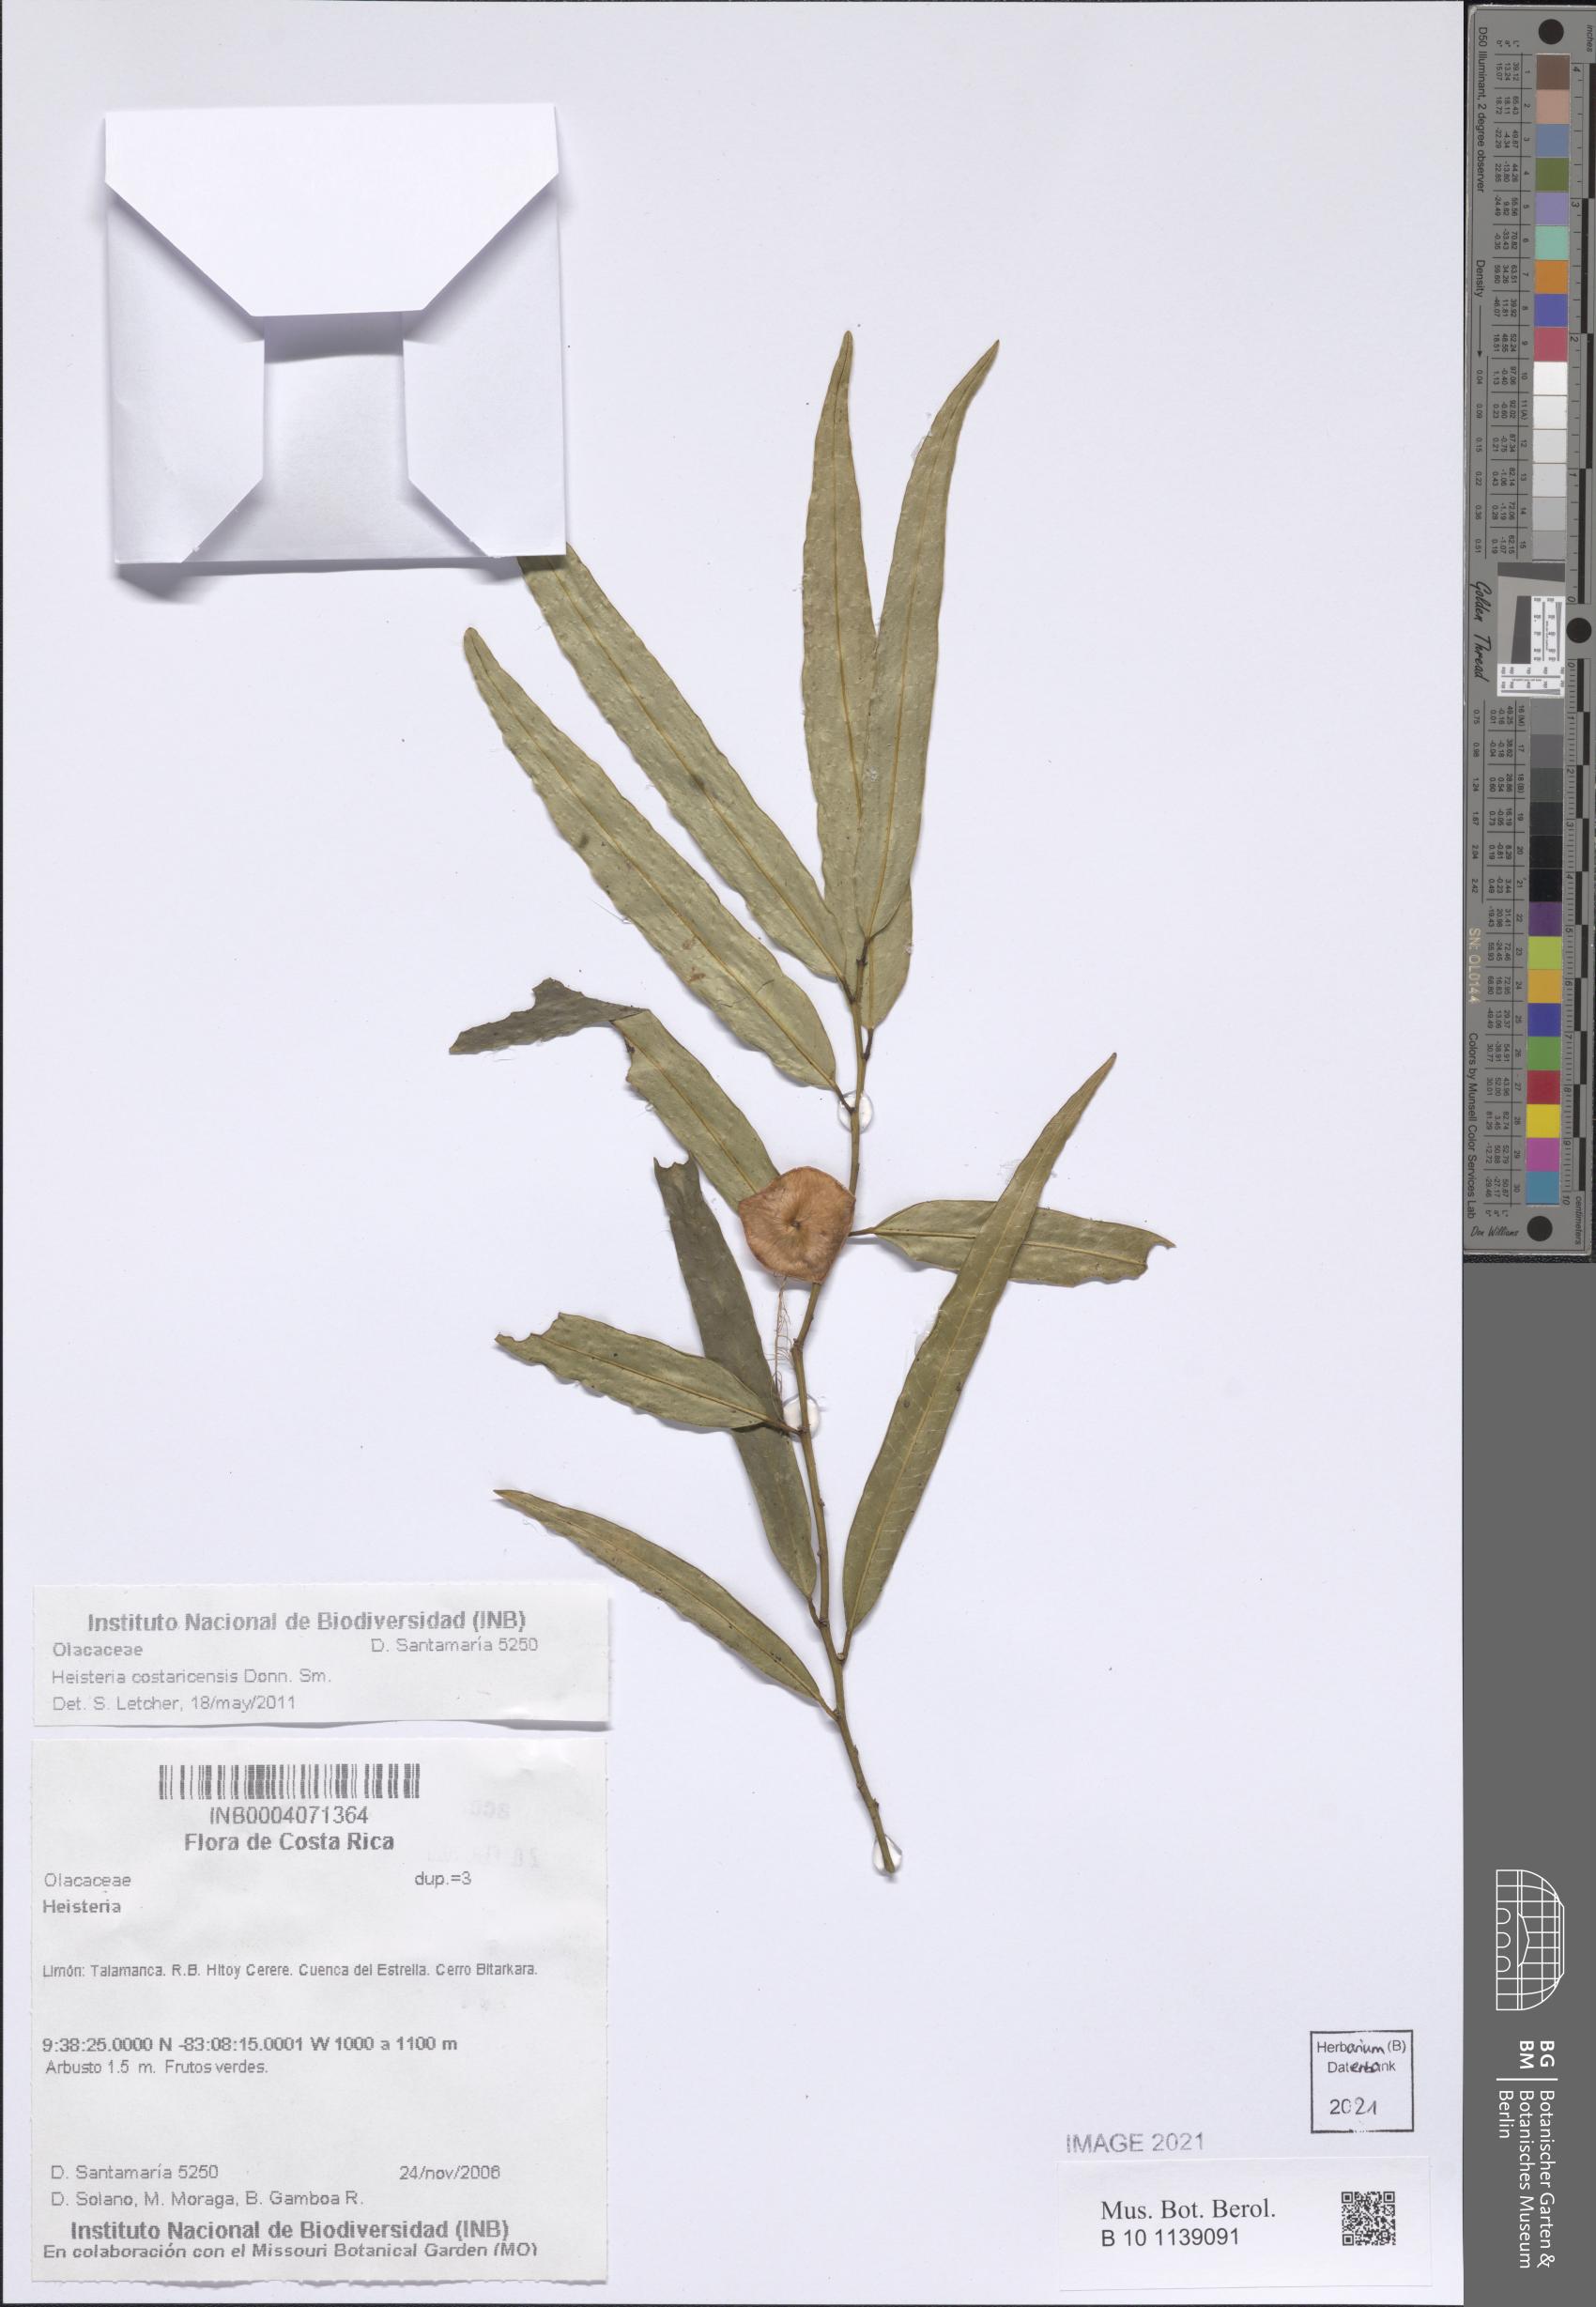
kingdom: Plantae
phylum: Tracheophyta
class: Magnoliopsida
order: Santalales
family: Erythropalaceae
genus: Heisteria
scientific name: Heisteria macrophylla
